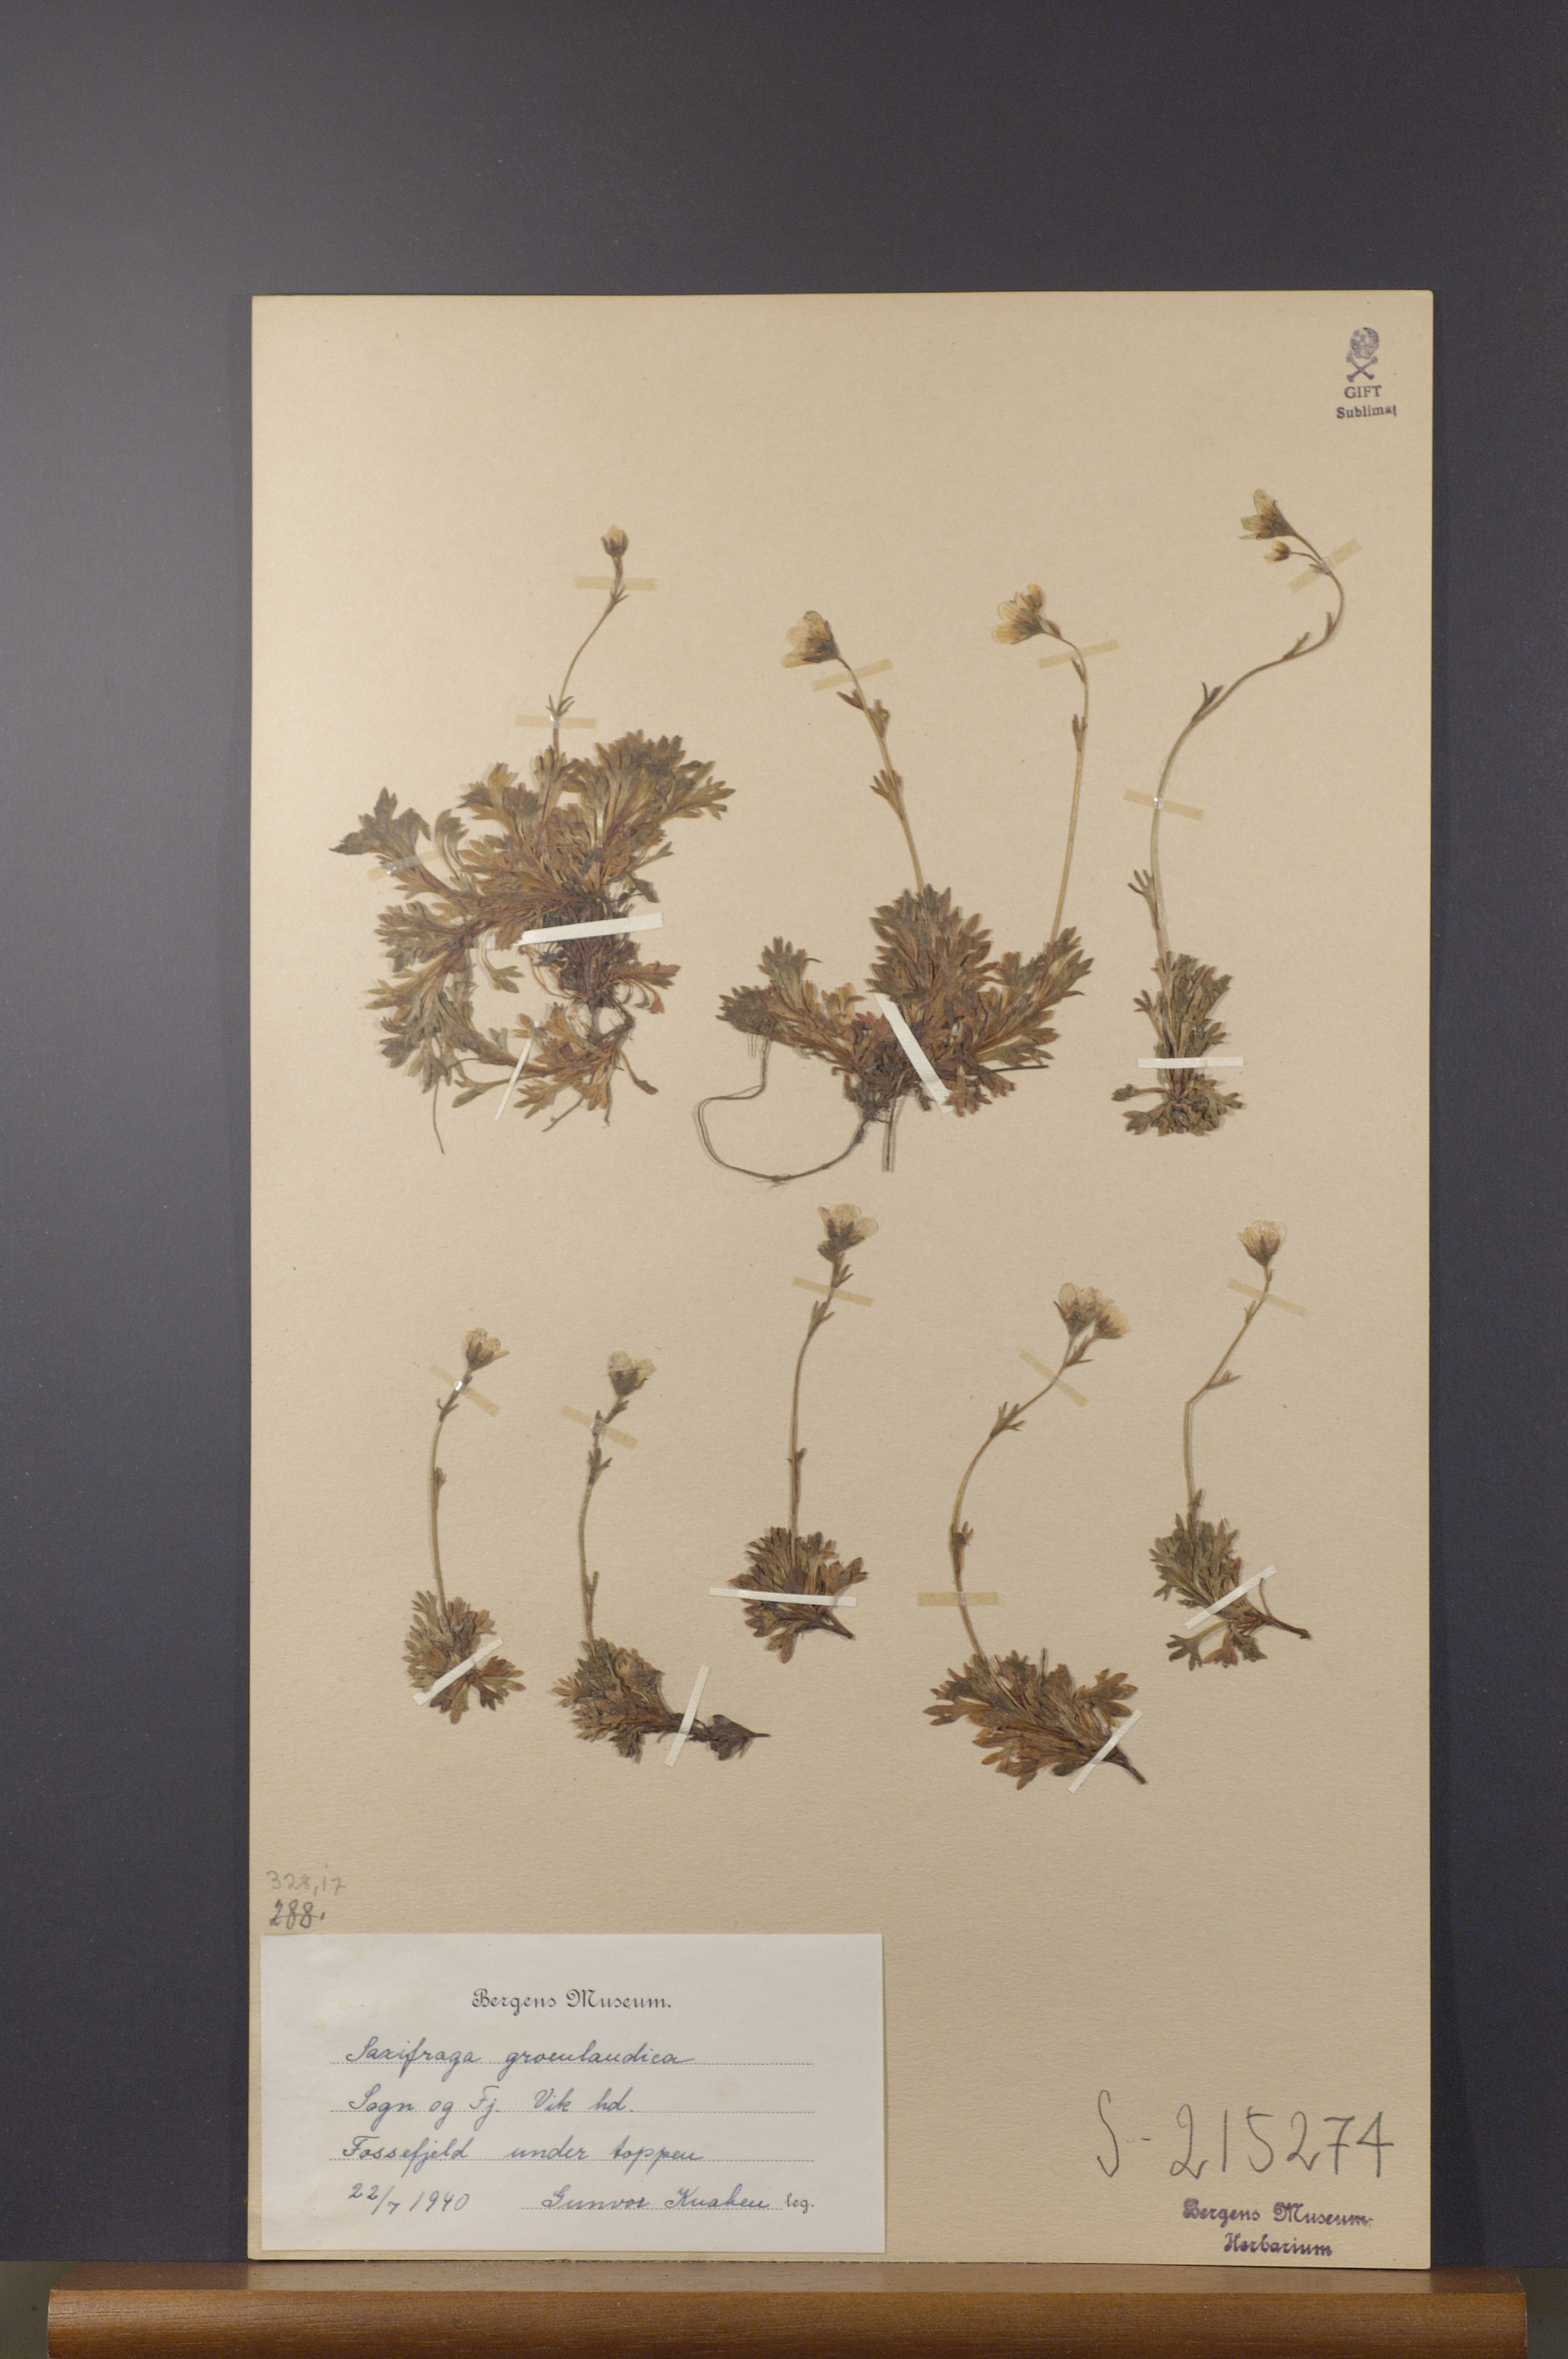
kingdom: Plantae
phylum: Tracheophyta
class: Magnoliopsida
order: Saxifragales
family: Saxifragaceae
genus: Saxifraga
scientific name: Saxifraga cespitosa
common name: Tufted saxifrage
